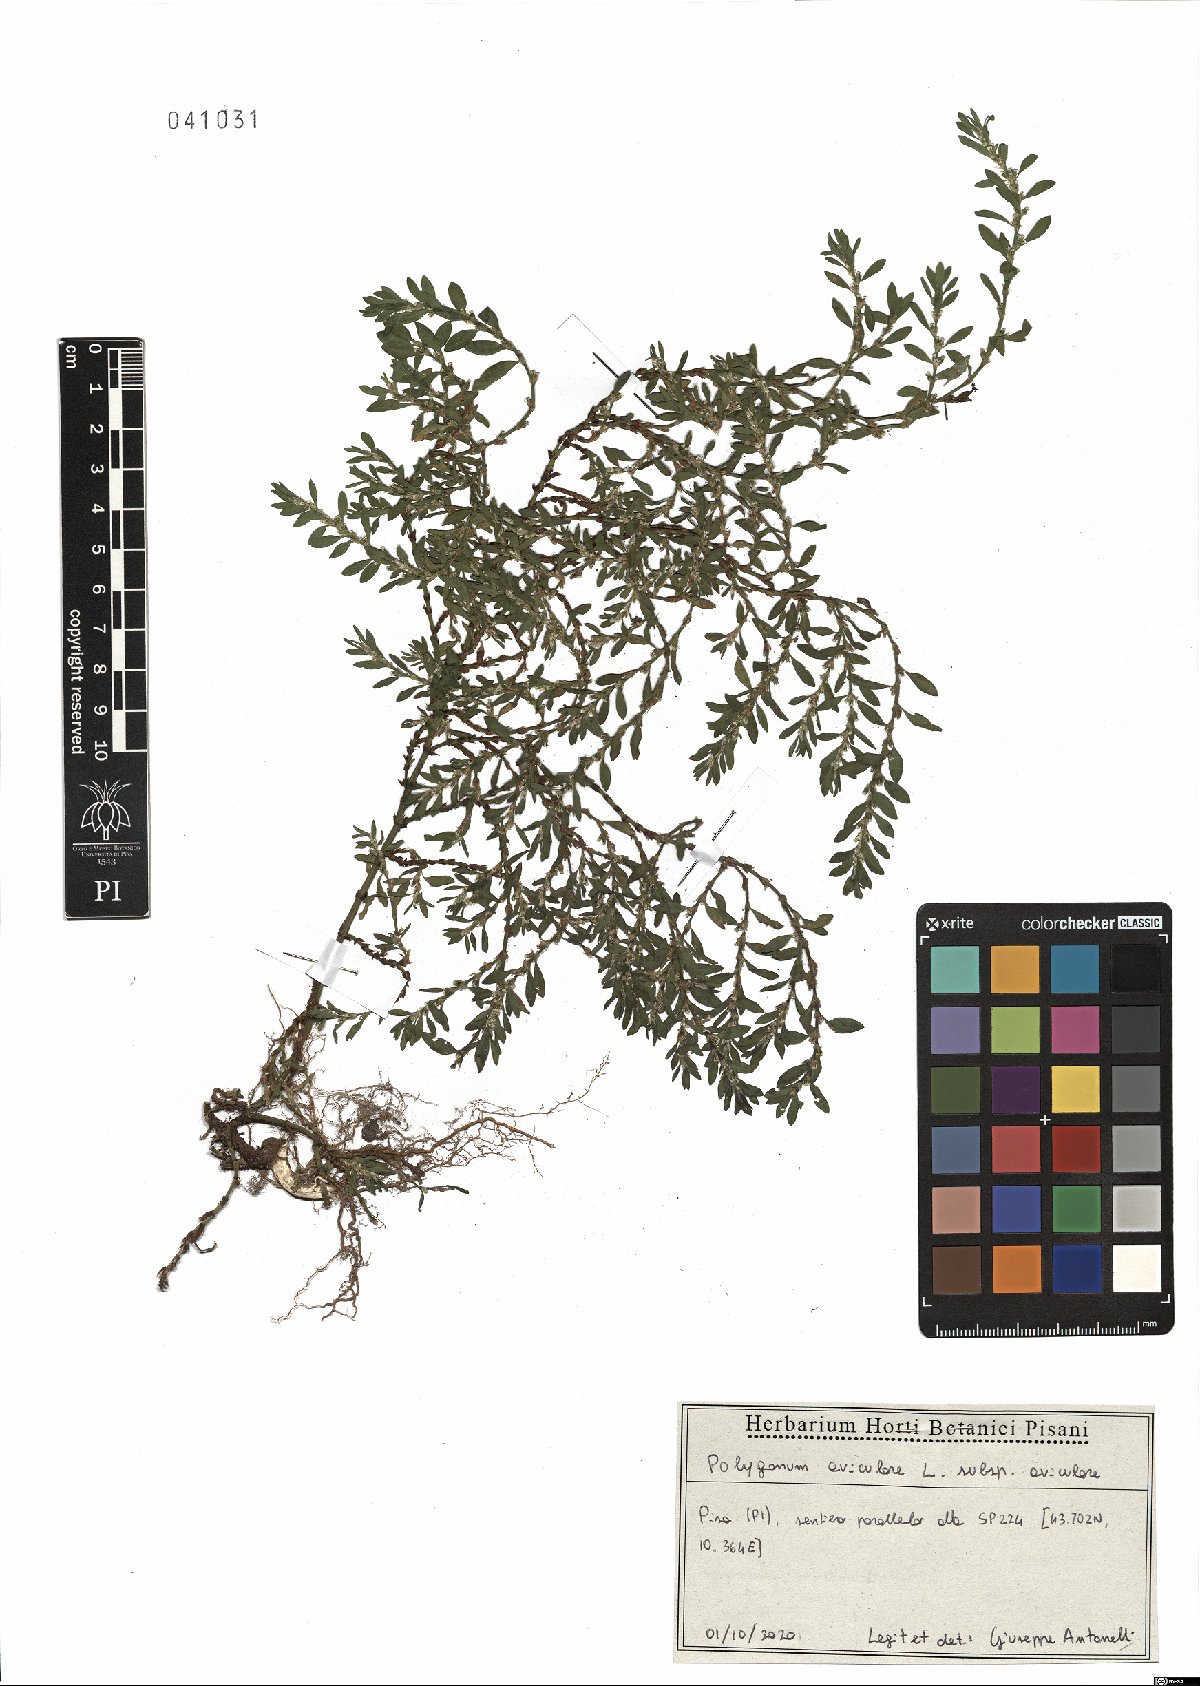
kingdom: Plantae
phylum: Tracheophyta
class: Magnoliopsida
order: Caryophyllales
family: Polygonaceae
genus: Polygonum
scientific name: Polygonum aviculare
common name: Prostrate knotweed
